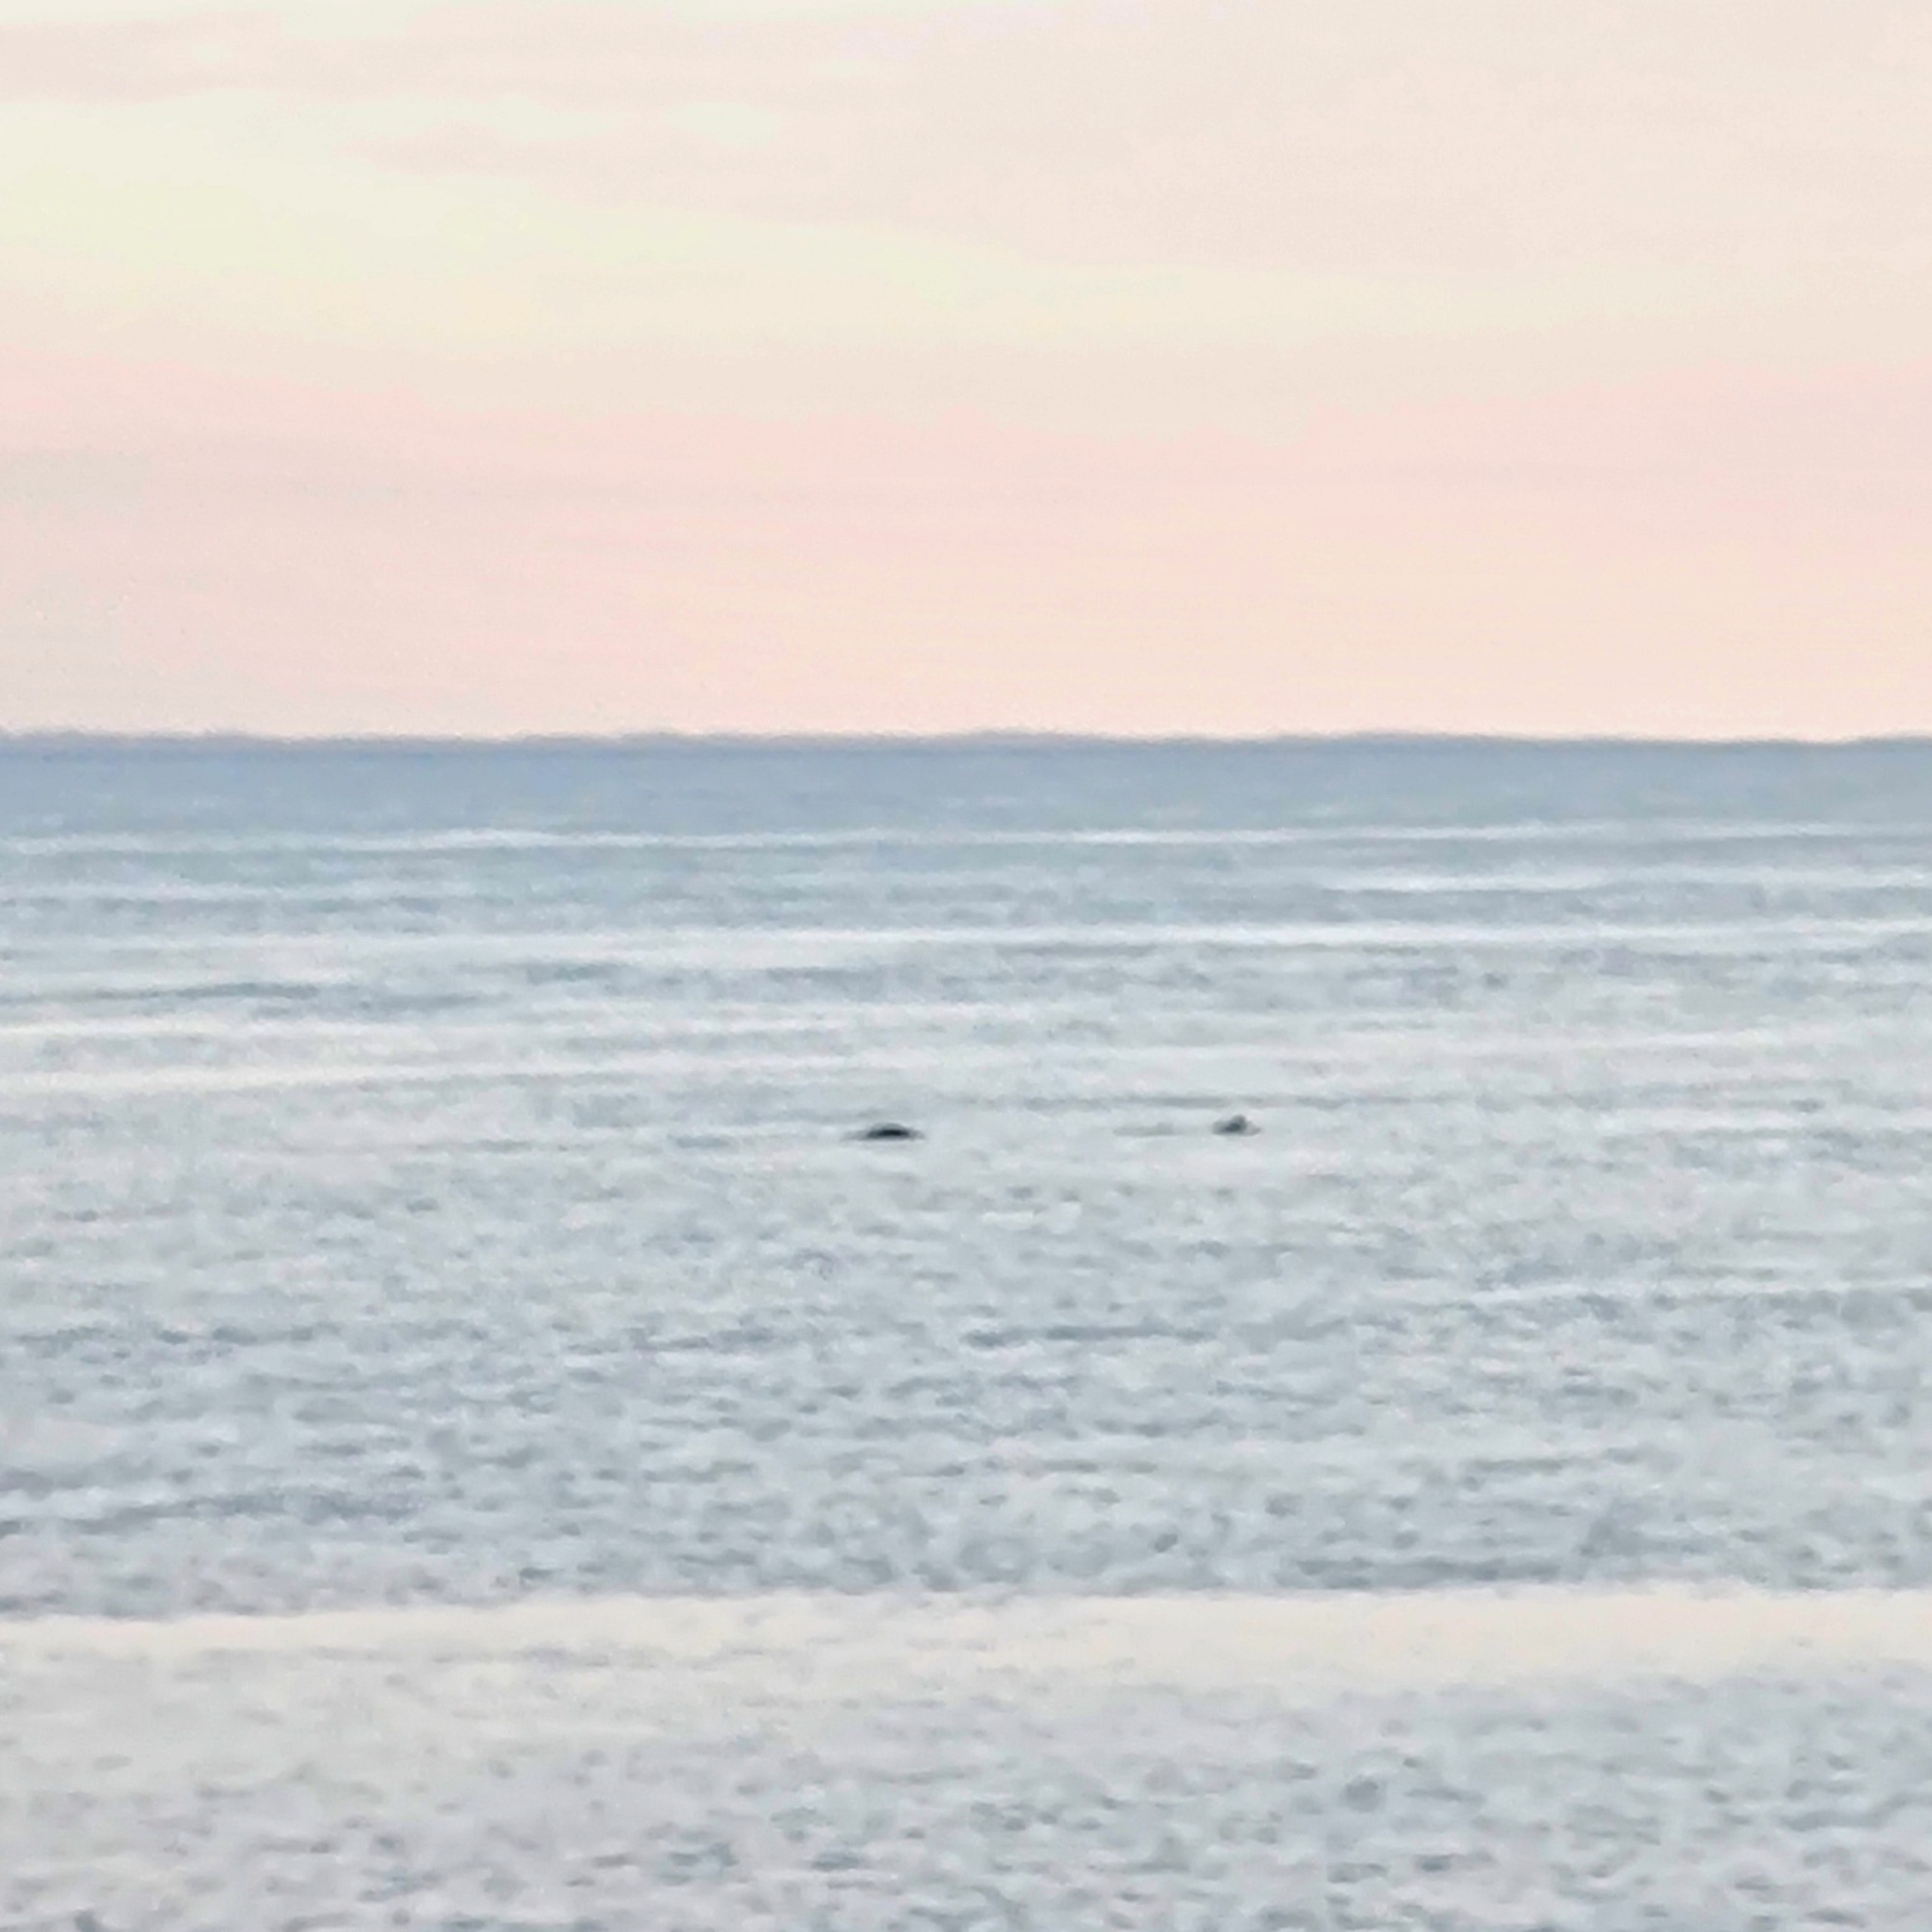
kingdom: Animalia
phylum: Chordata
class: Mammalia
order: Cetacea
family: Phocoenidae
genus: Phocoena
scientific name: Phocoena phocoena
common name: Marsvin
